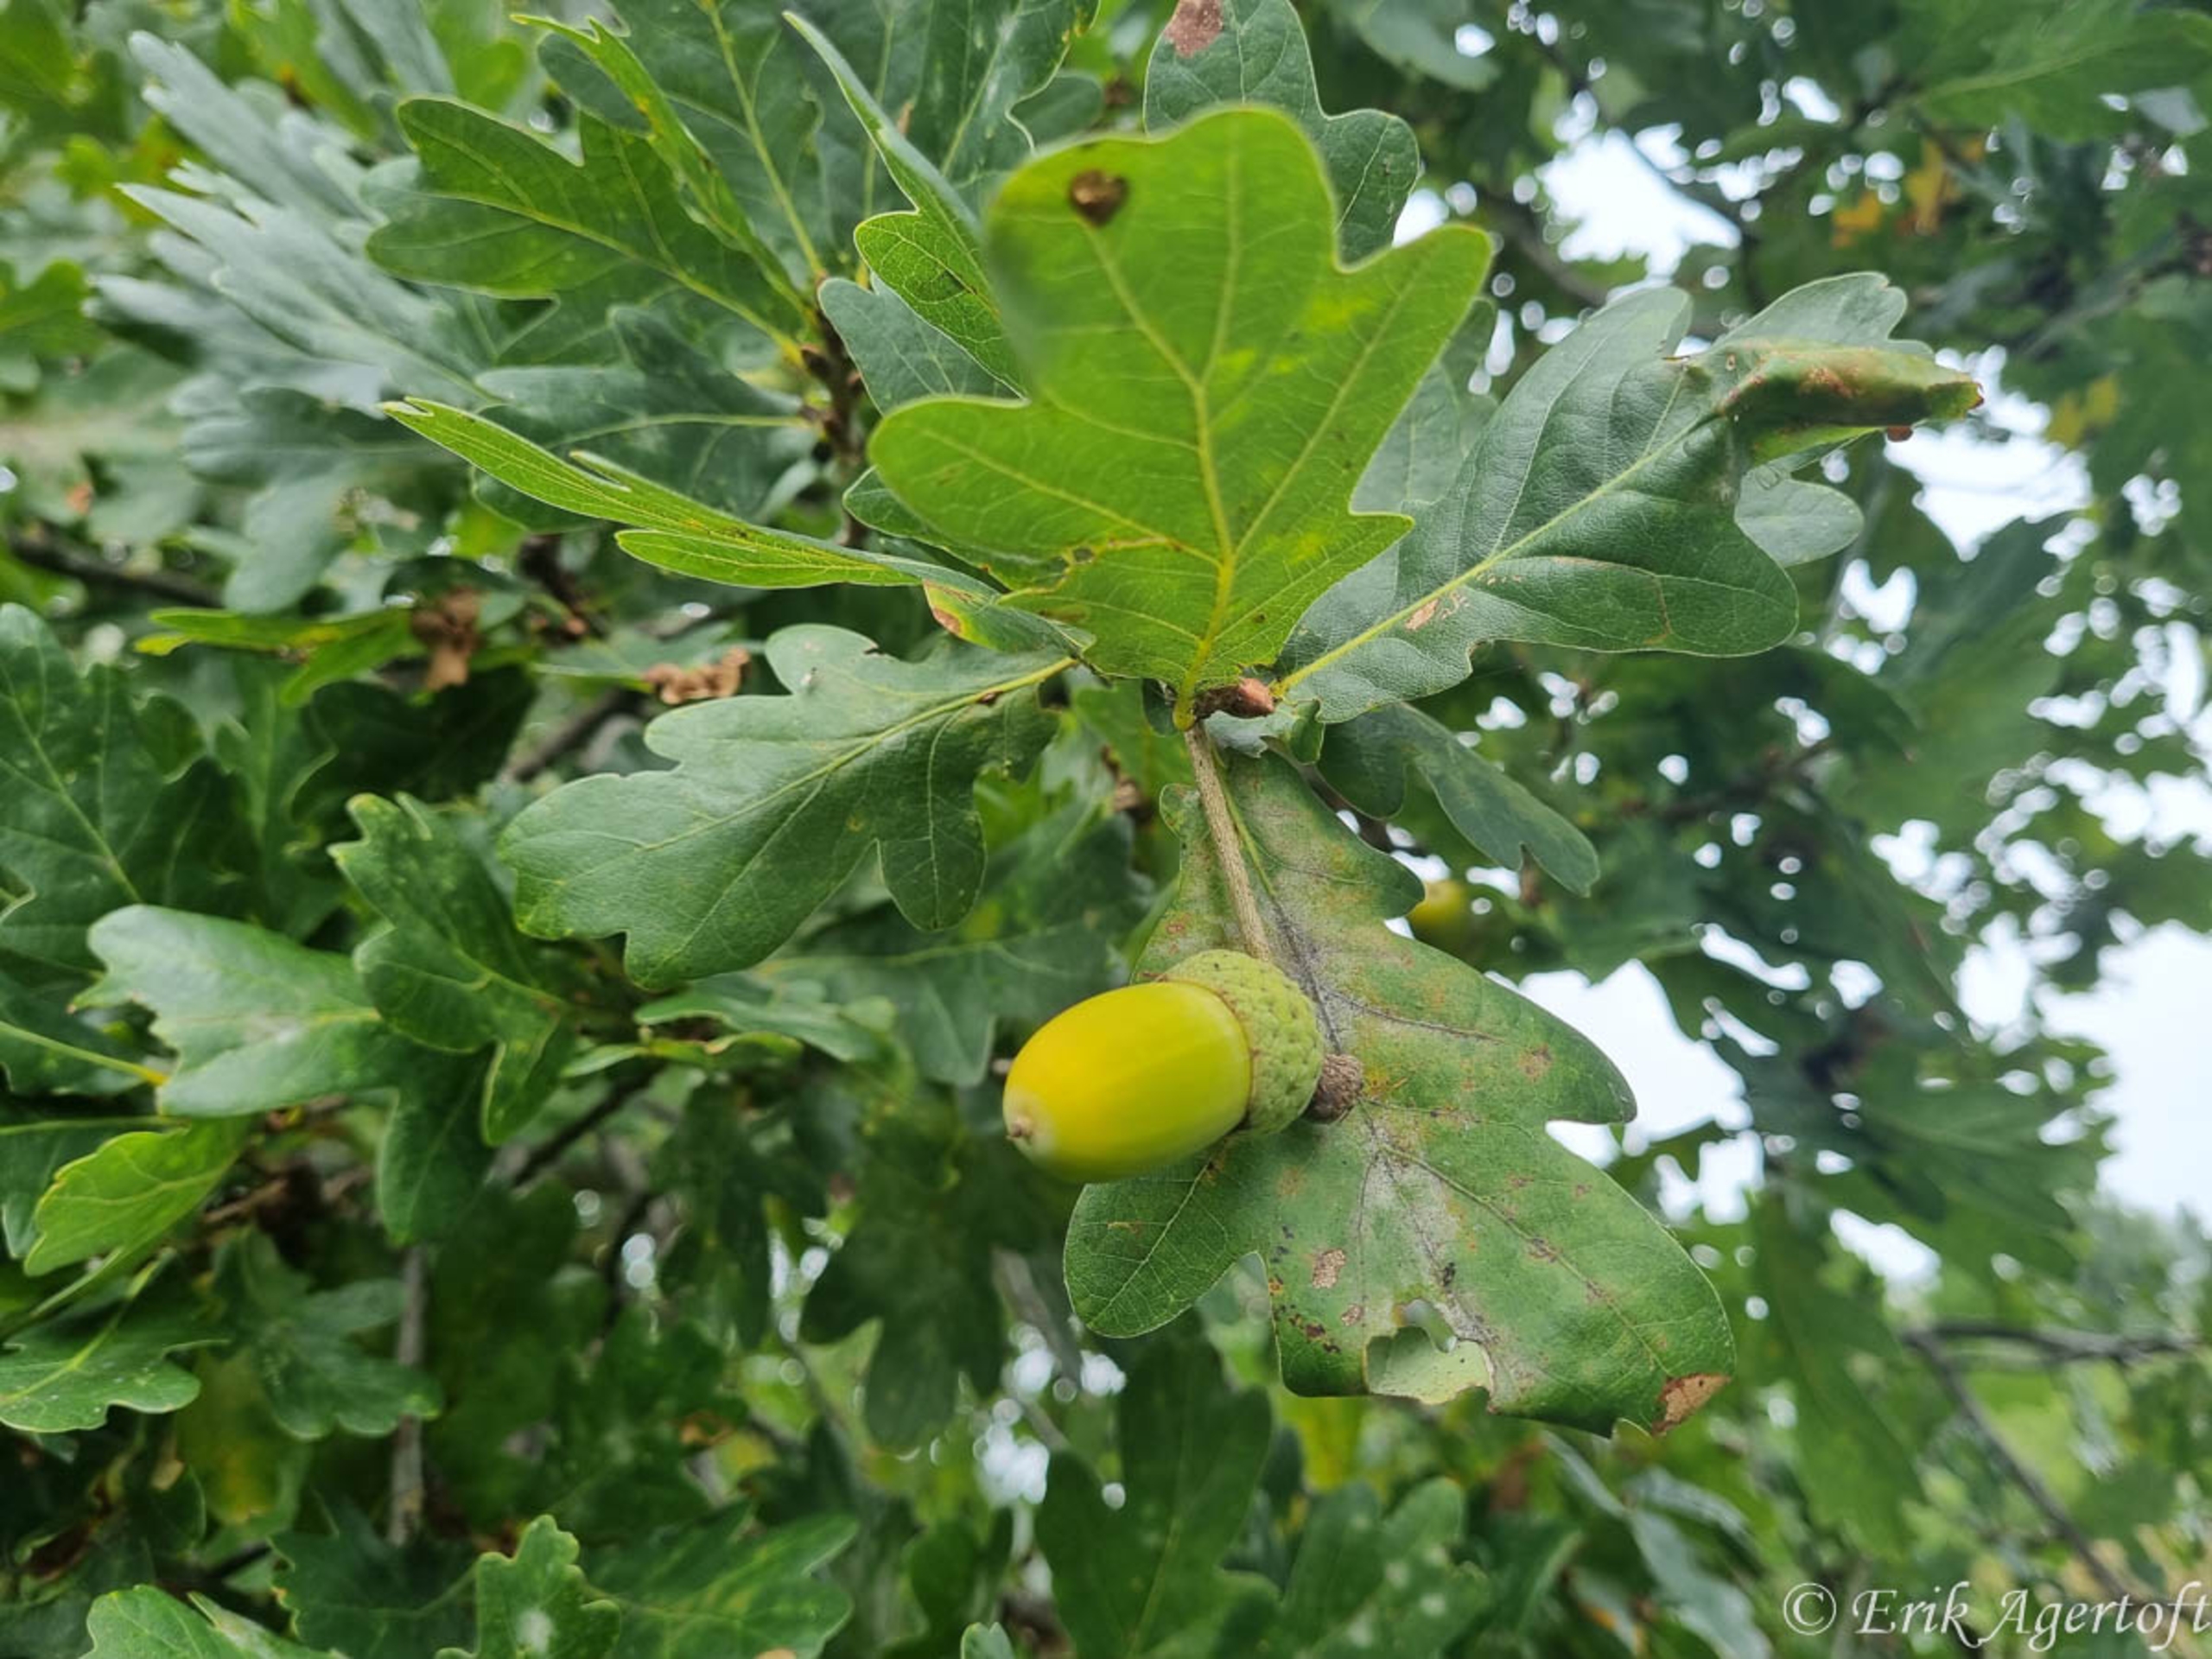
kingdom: Plantae
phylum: Tracheophyta
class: Magnoliopsida
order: Fagales
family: Fagaceae
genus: Quercus
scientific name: Quercus robur
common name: Stilk-eg/almindelig eg
